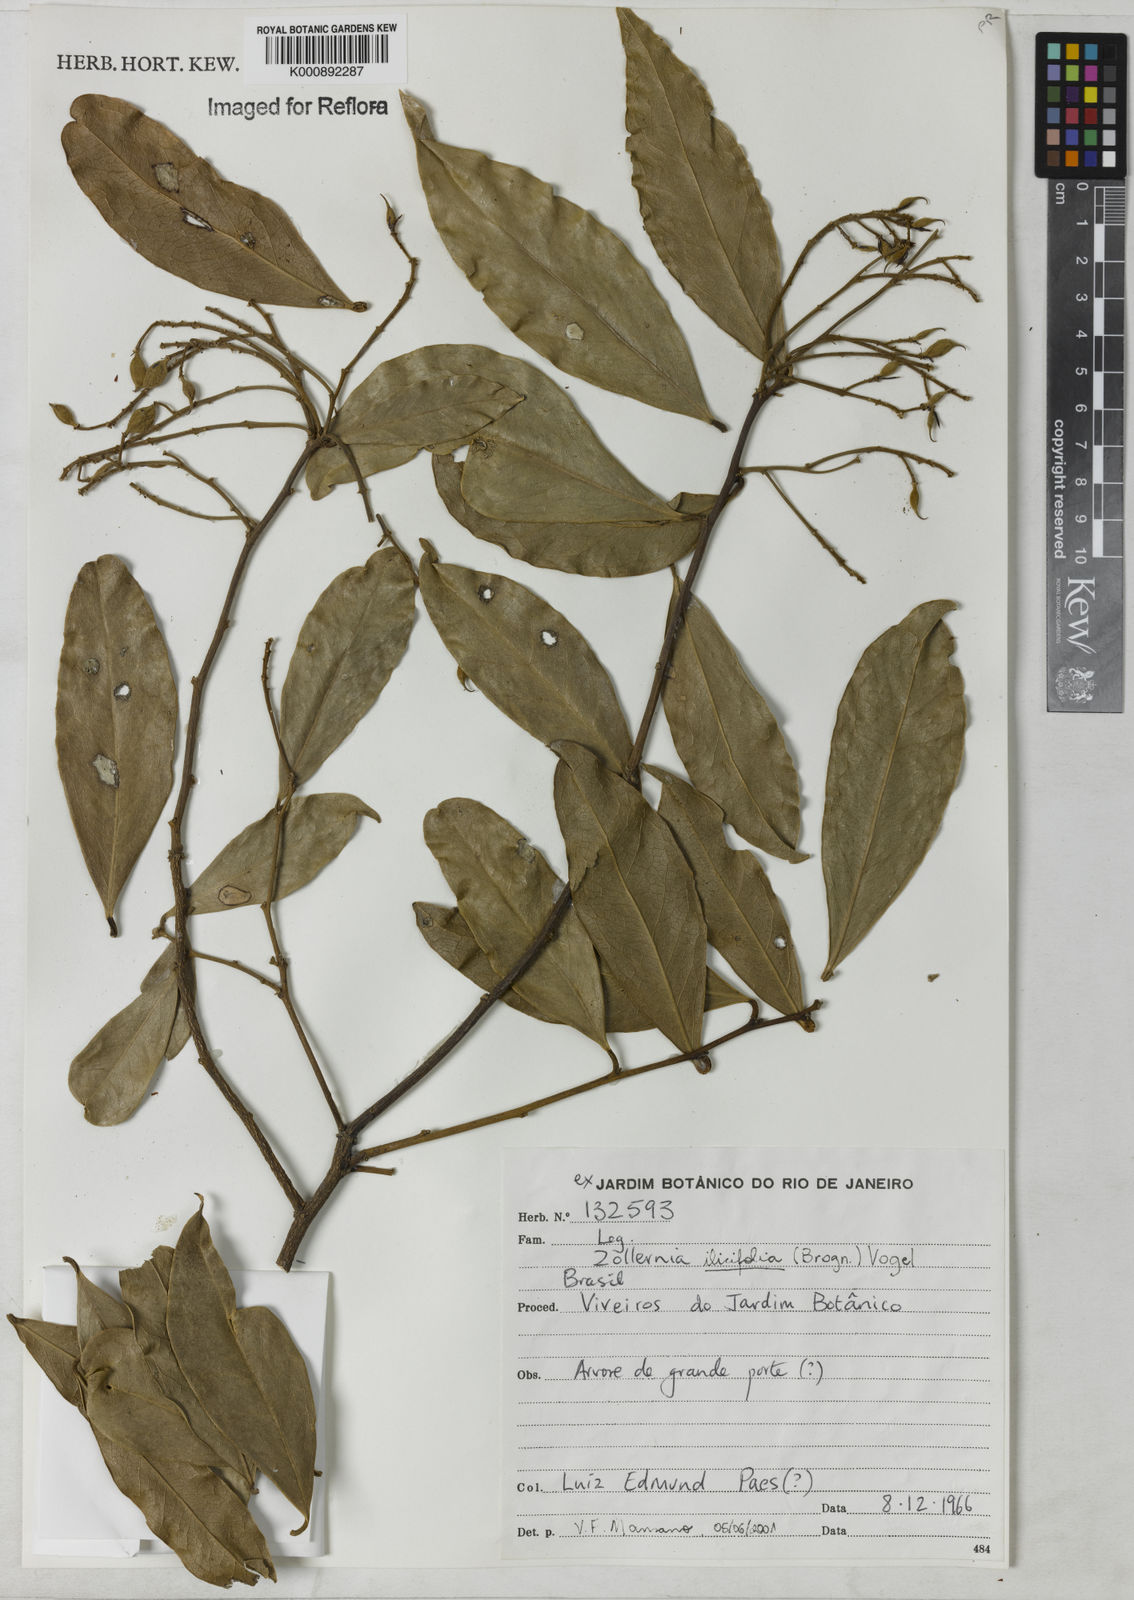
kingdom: Plantae
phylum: Tracheophyta
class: Magnoliopsida
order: Fabales
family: Fabaceae
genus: Zollernia
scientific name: Zollernia ilicifolia
